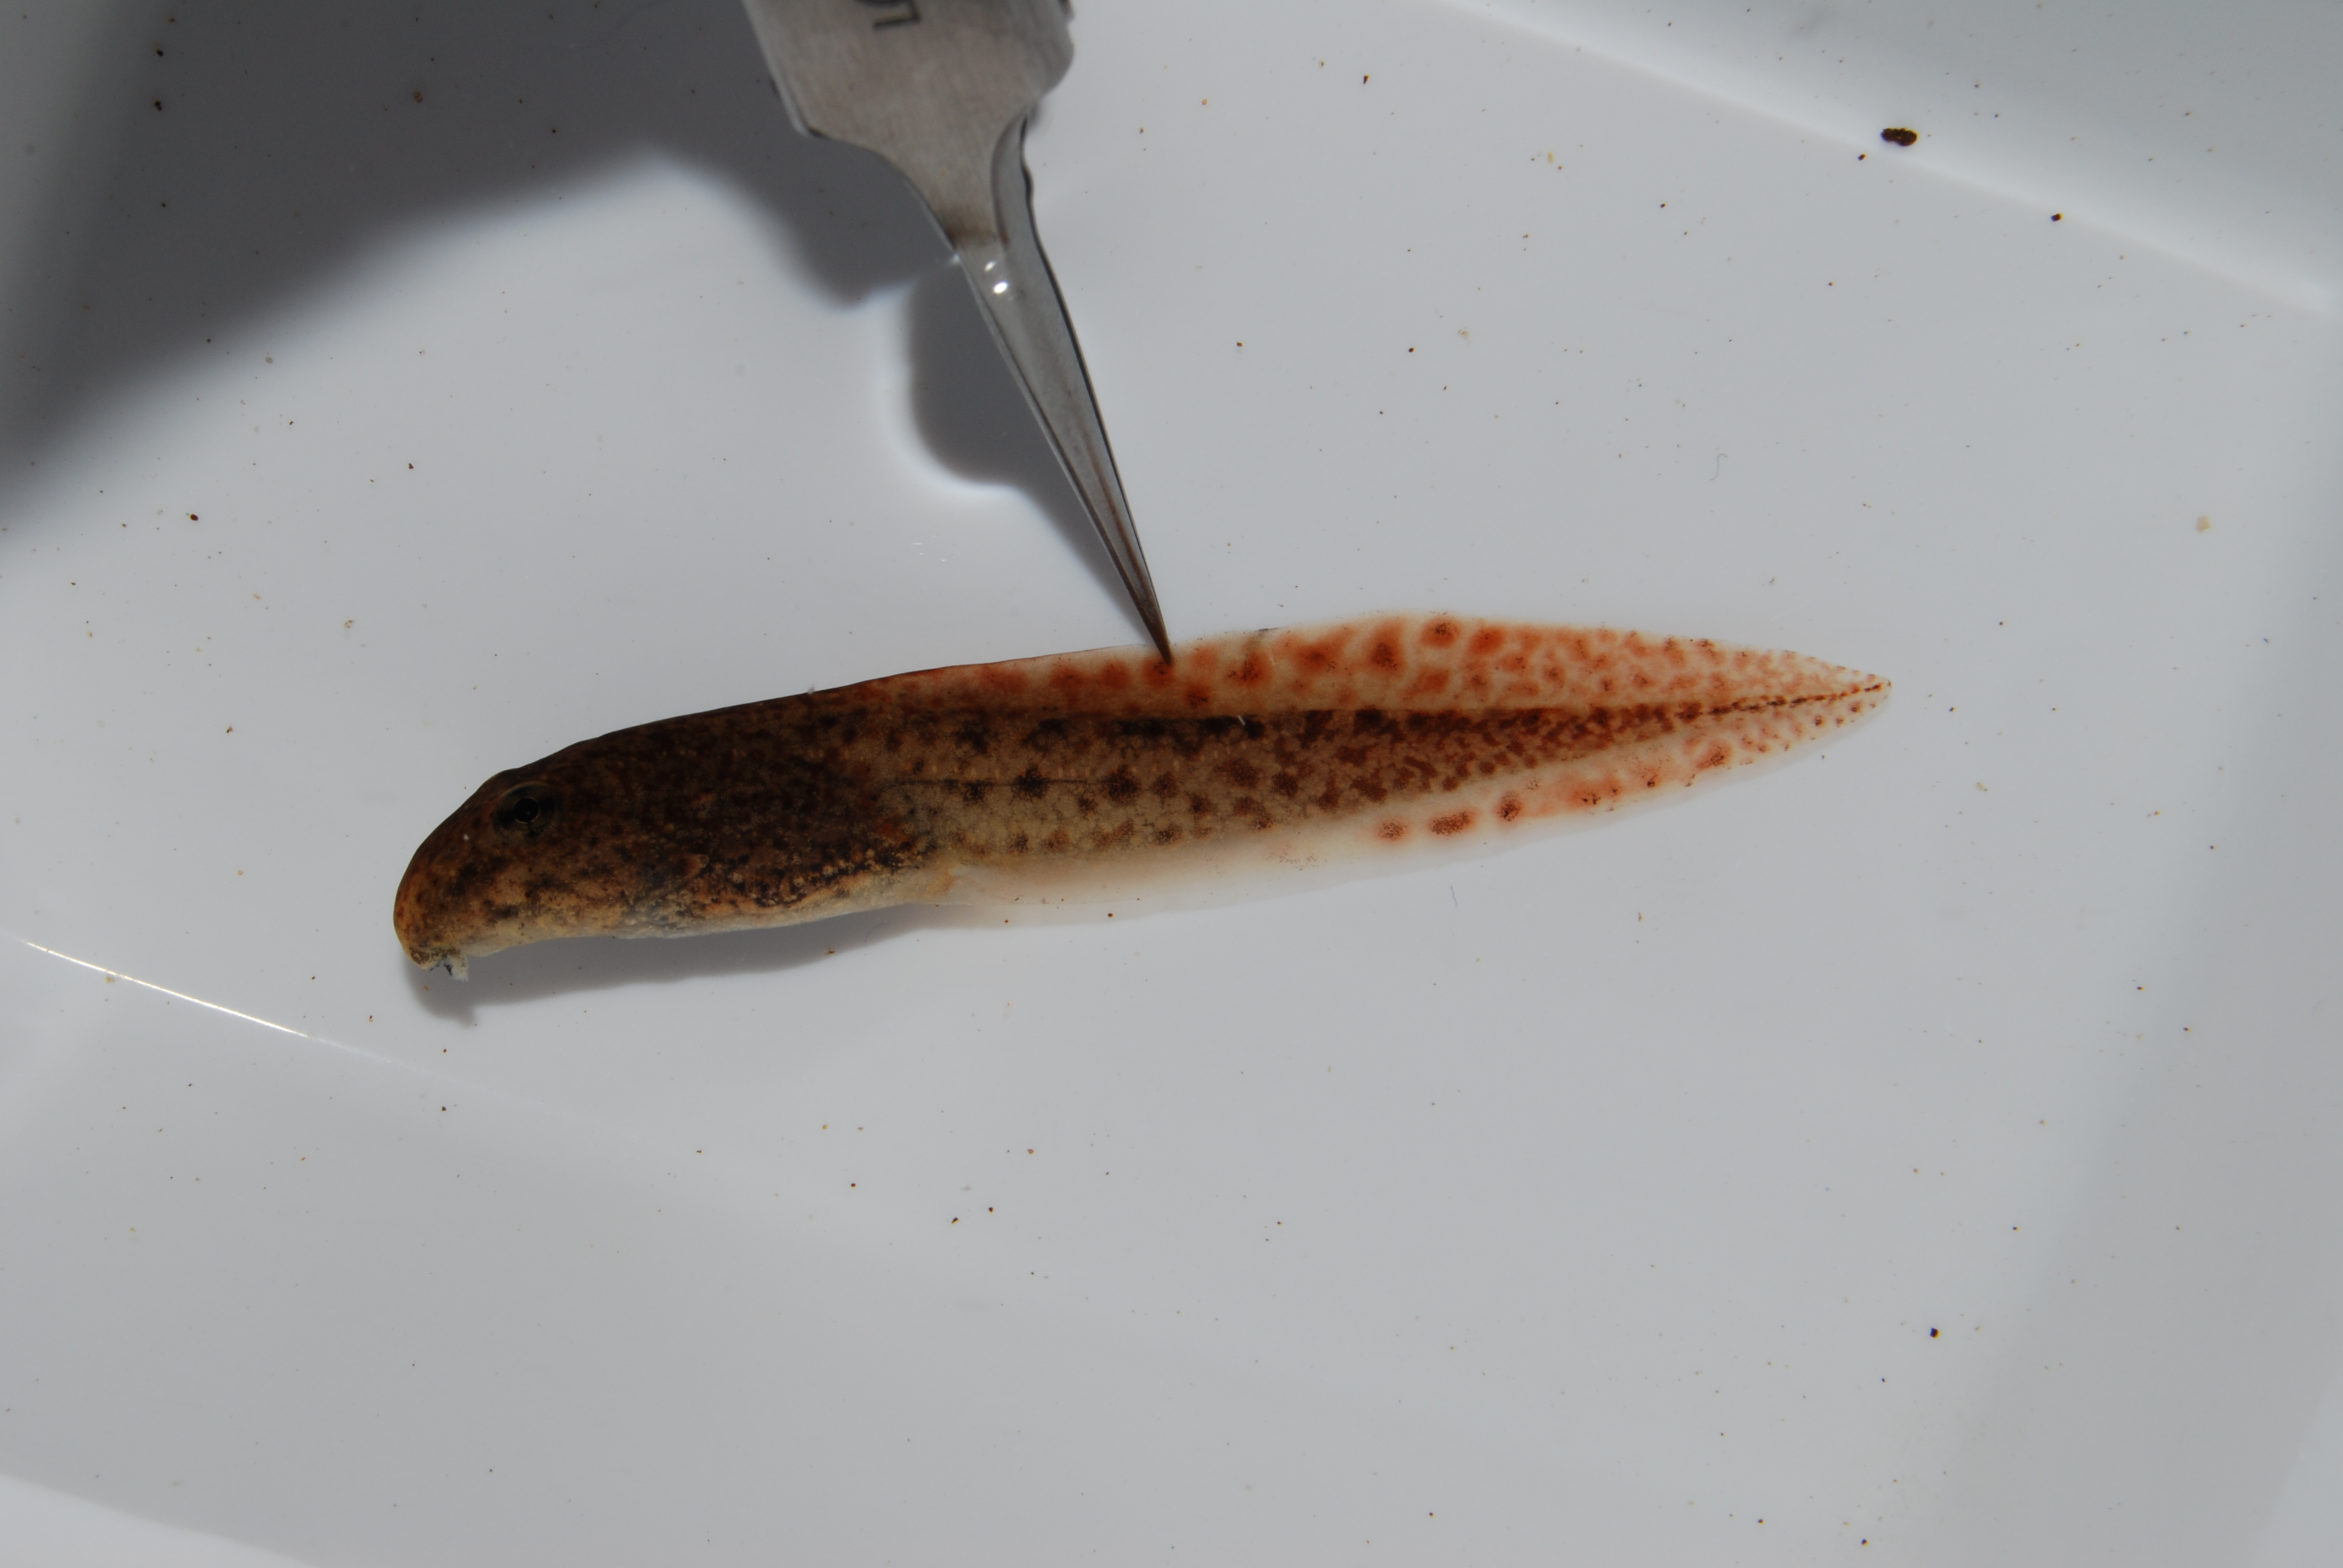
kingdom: Animalia
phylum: Chordata
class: Amphibia
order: Anura
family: Pyxicephalidae
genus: Amietia
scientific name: Amietia fuscigula
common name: Cape rana
